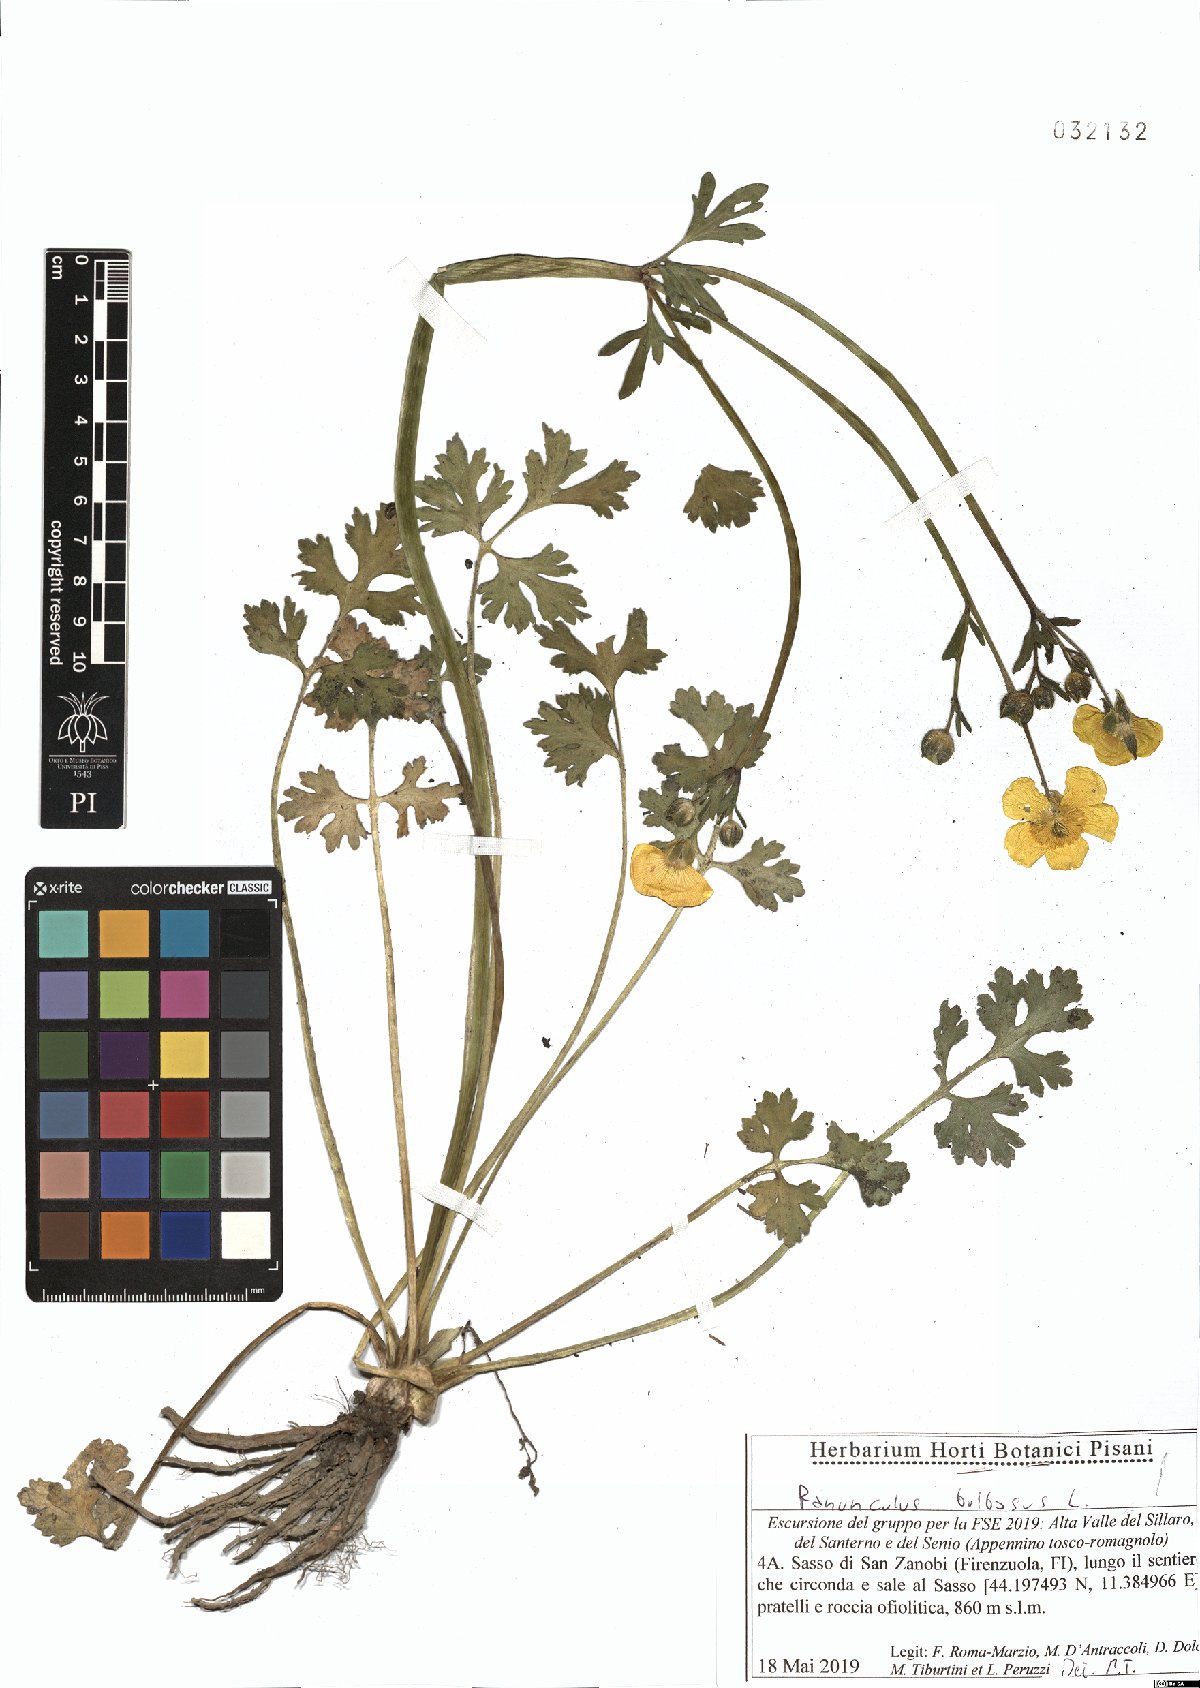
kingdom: Plantae
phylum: Tracheophyta
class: Magnoliopsida
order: Ranunculales
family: Ranunculaceae
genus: Ranunculus
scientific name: Ranunculus bulbosus
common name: Bulbous buttercup
